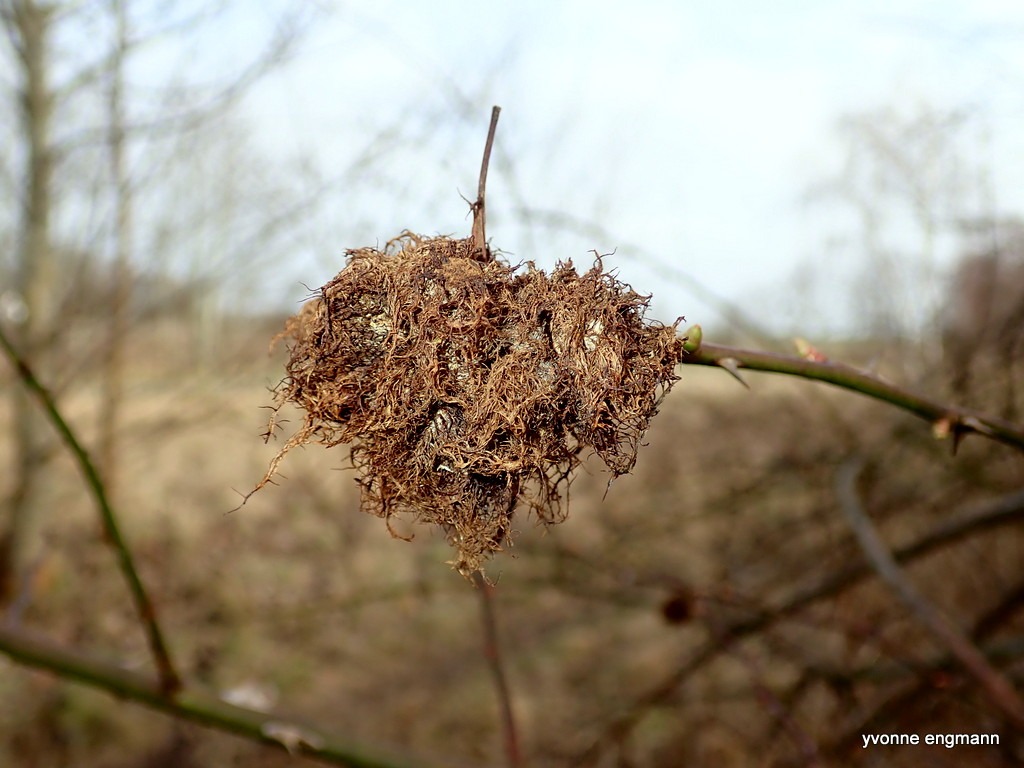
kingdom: Animalia
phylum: Arthropoda
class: Insecta
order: Hymenoptera
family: Cynipidae
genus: Diplolepis
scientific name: Diplolepis rosae
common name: Bedeguargalhveps
